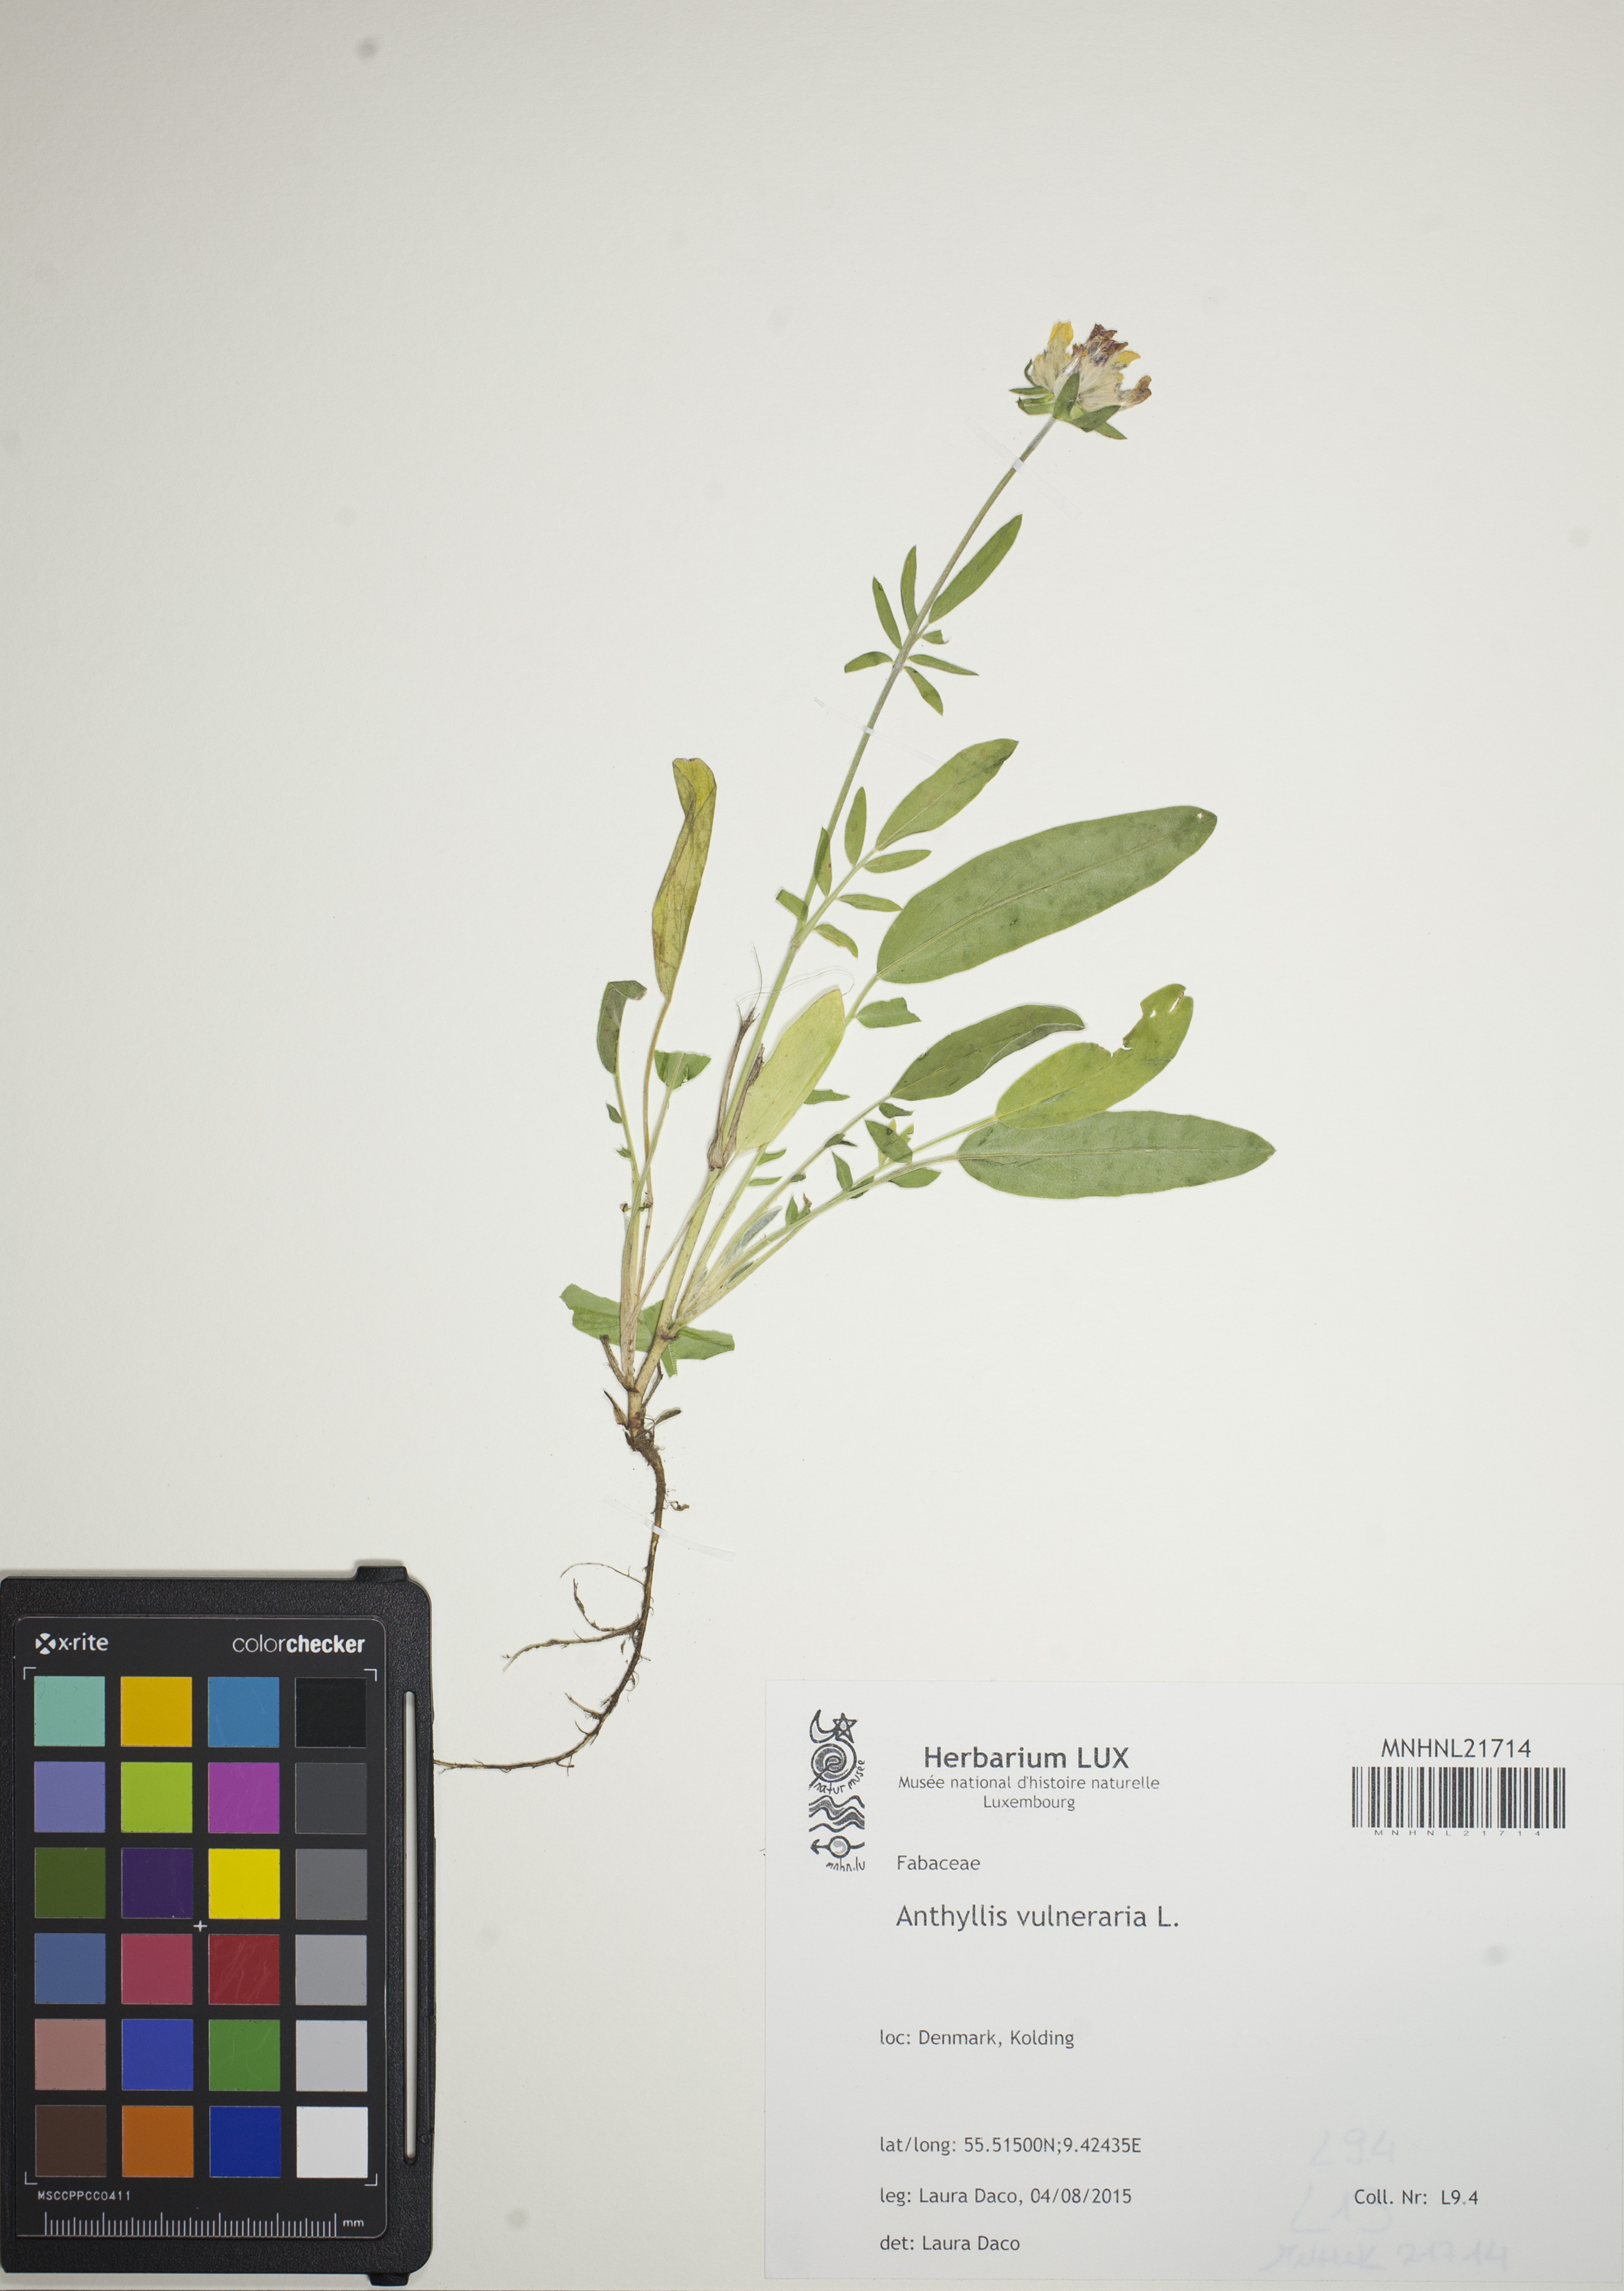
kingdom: Plantae
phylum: Tracheophyta
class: Magnoliopsida
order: Fabales
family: Fabaceae
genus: Anthyllis
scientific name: Anthyllis vulneraria
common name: Kidney vetch
